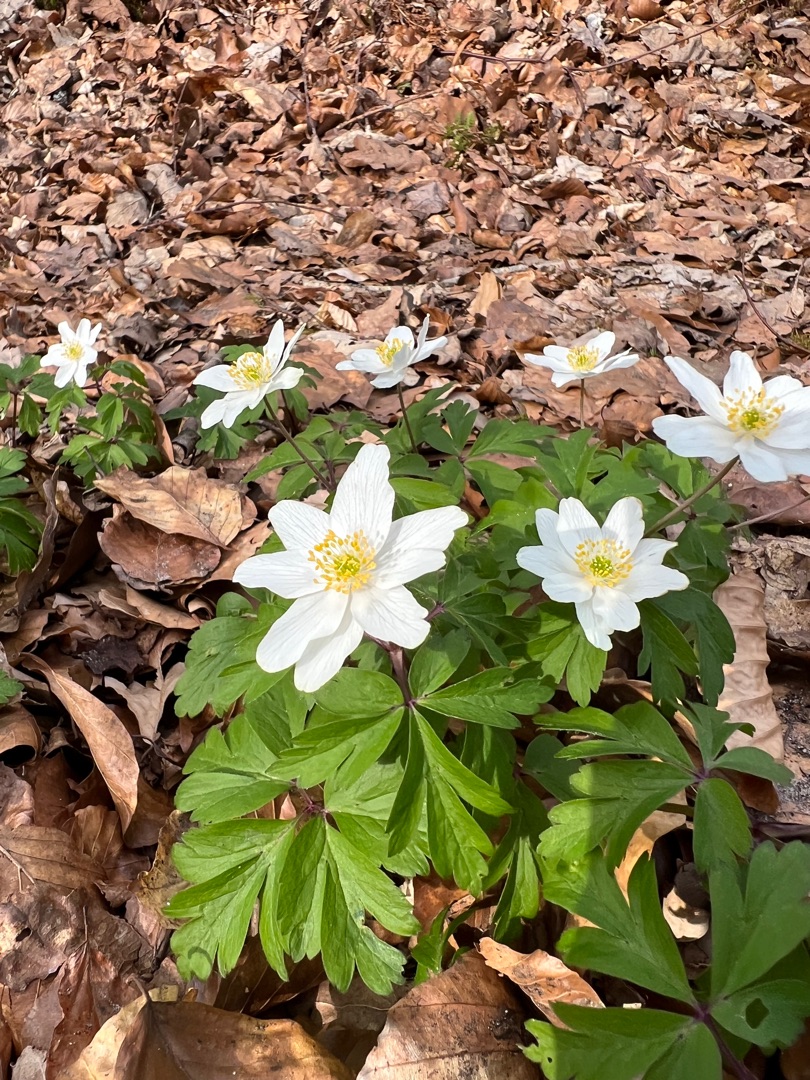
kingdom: Plantae
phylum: Tracheophyta
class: Magnoliopsida
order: Ranunculales
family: Ranunculaceae
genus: Anemone
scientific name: Anemone nemorosa
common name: Hvid anemone
